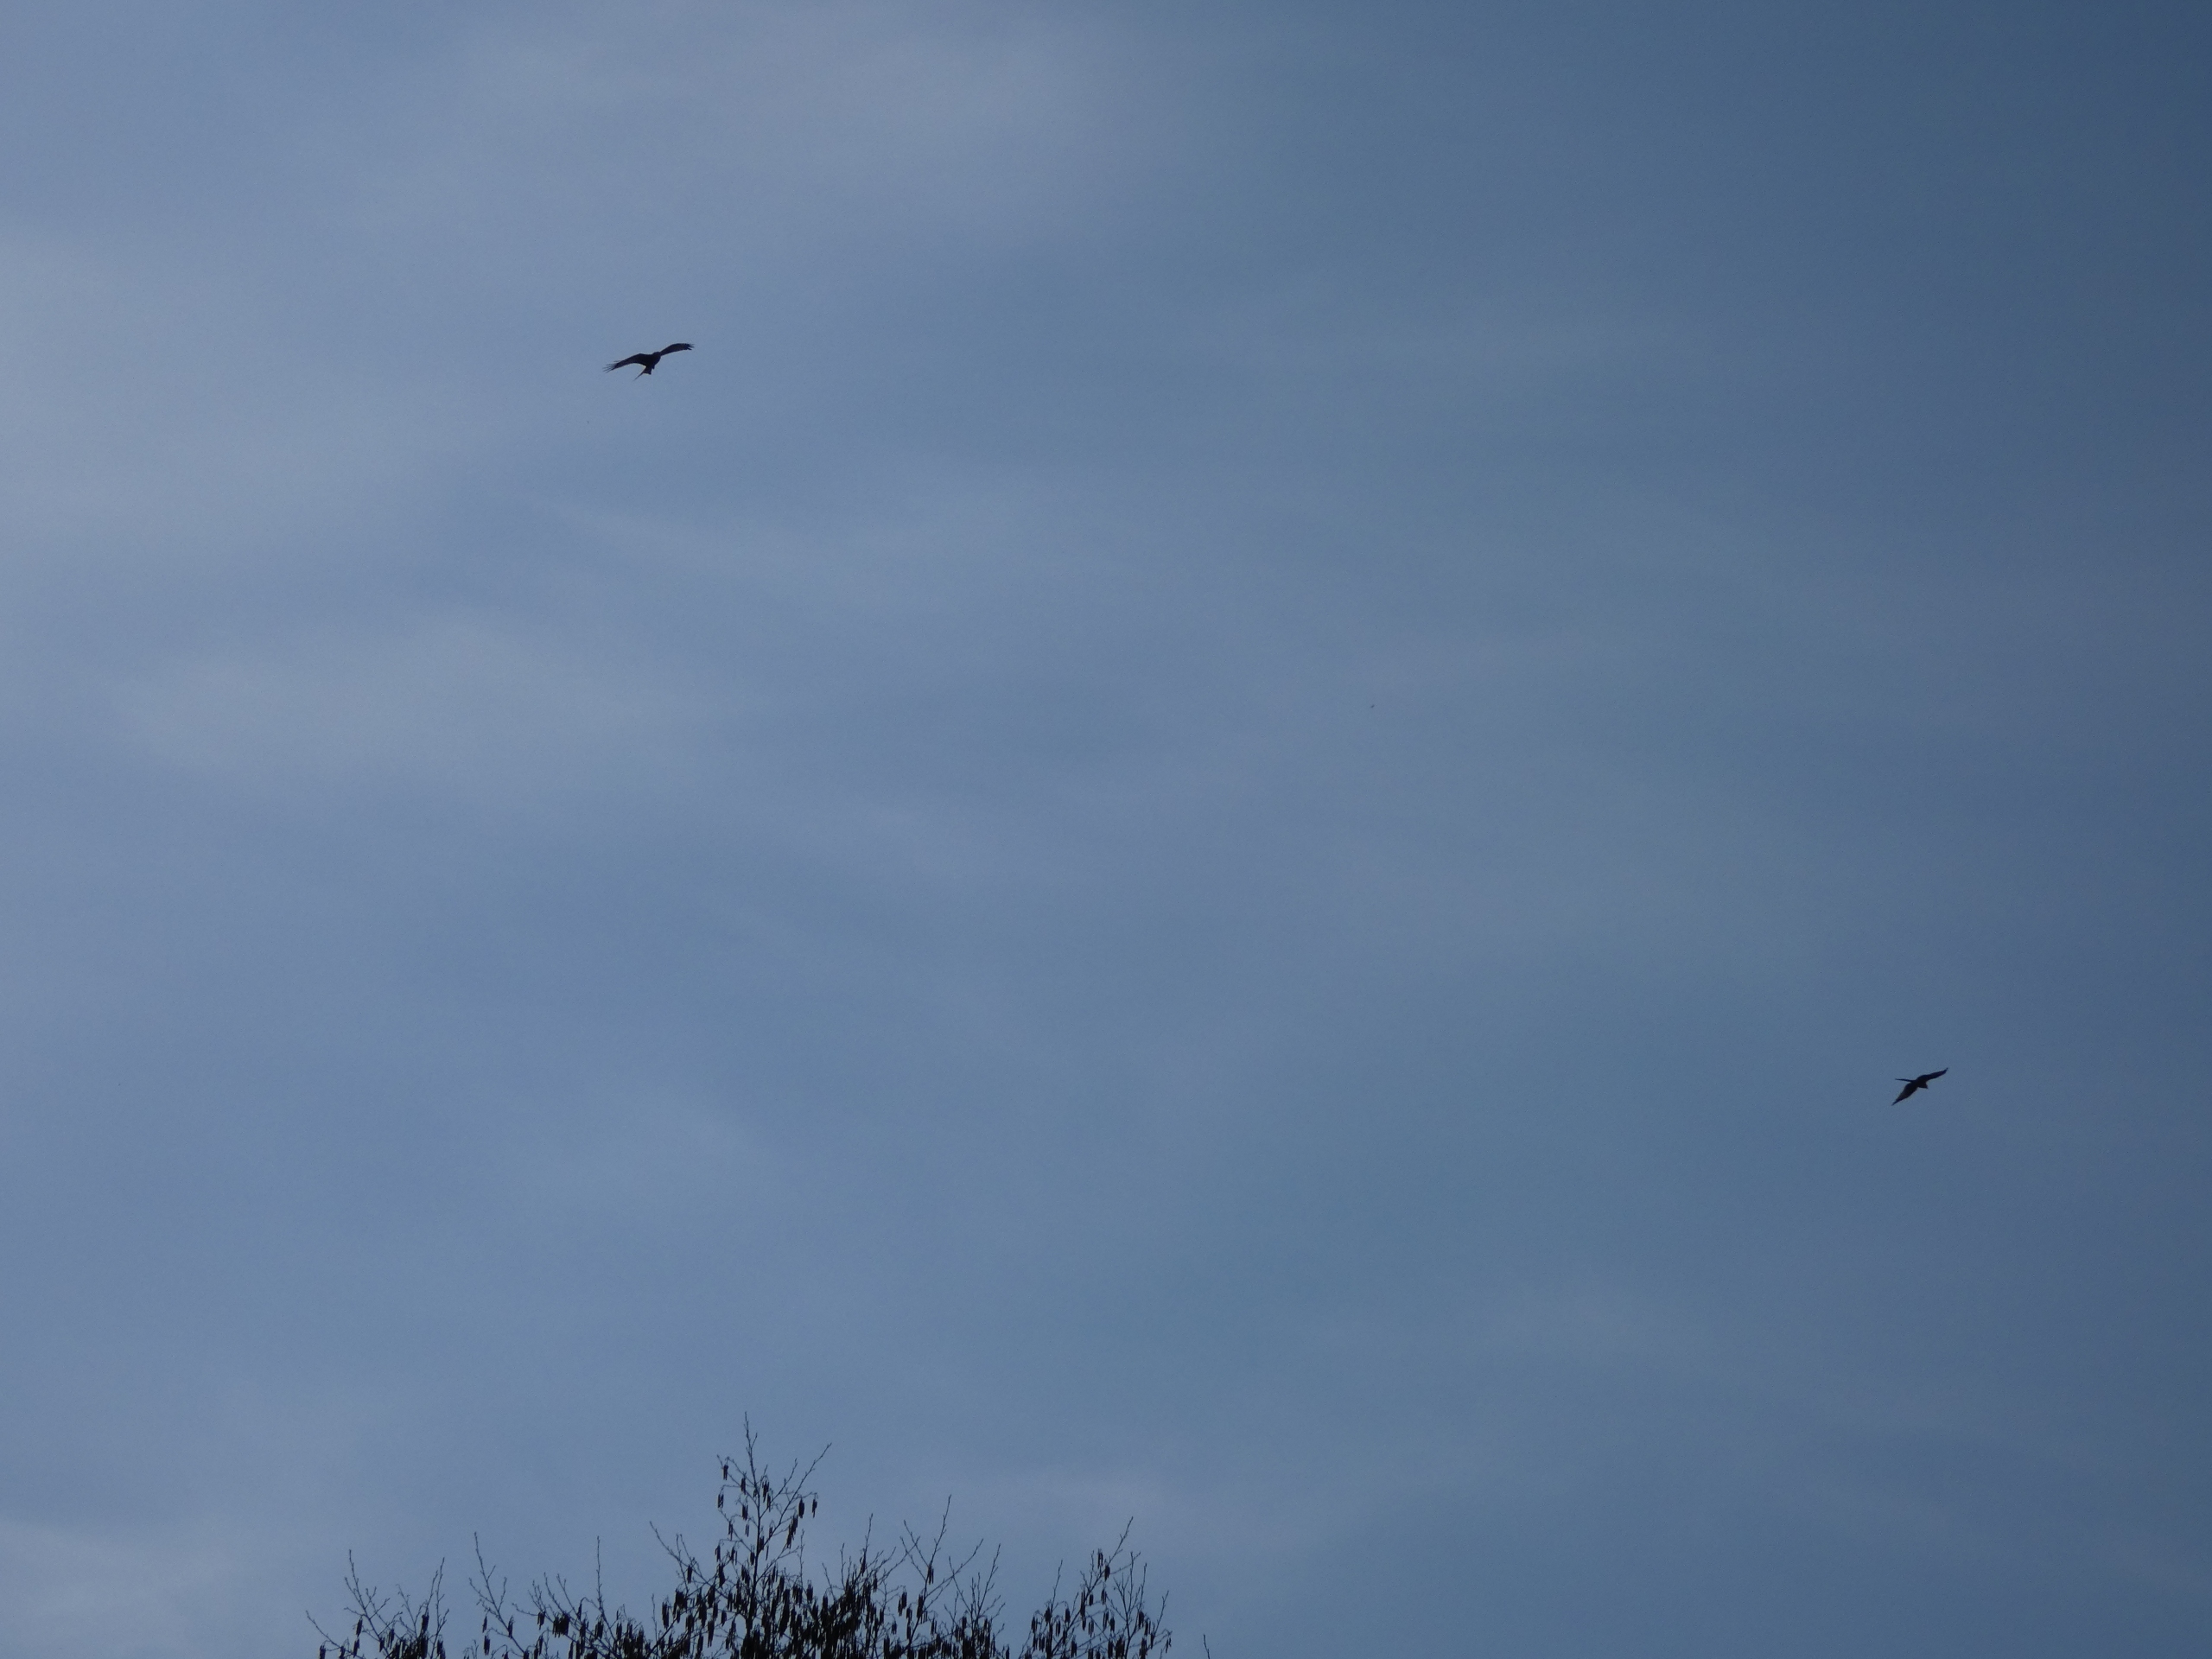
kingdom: Animalia
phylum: Chordata
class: Aves
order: Accipitriformes
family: Accipitridae
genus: Milvus
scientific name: Milvus milvus
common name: Rød glente
